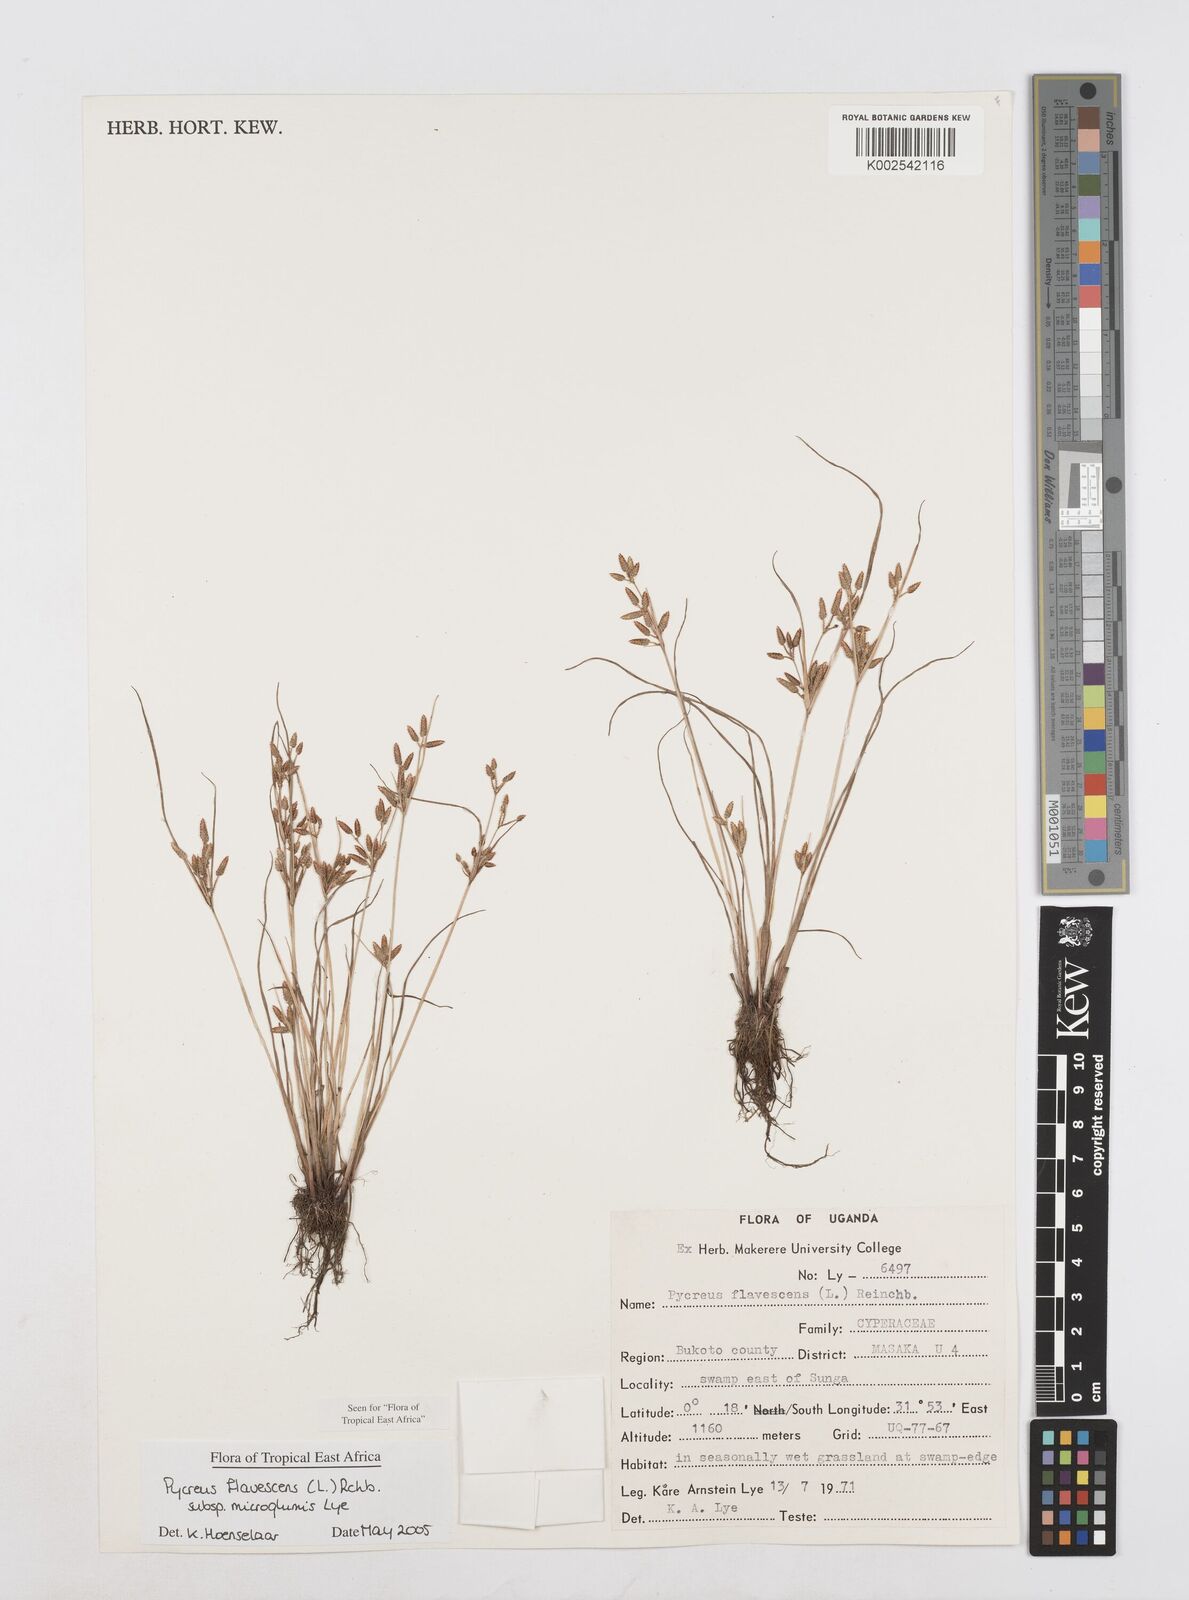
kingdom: Plantae
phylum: Tracheophyta
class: Liliopsida
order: Poales
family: Cyperaceae
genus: Cyperus
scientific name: Cyperus flavescens
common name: Yellow galingale
